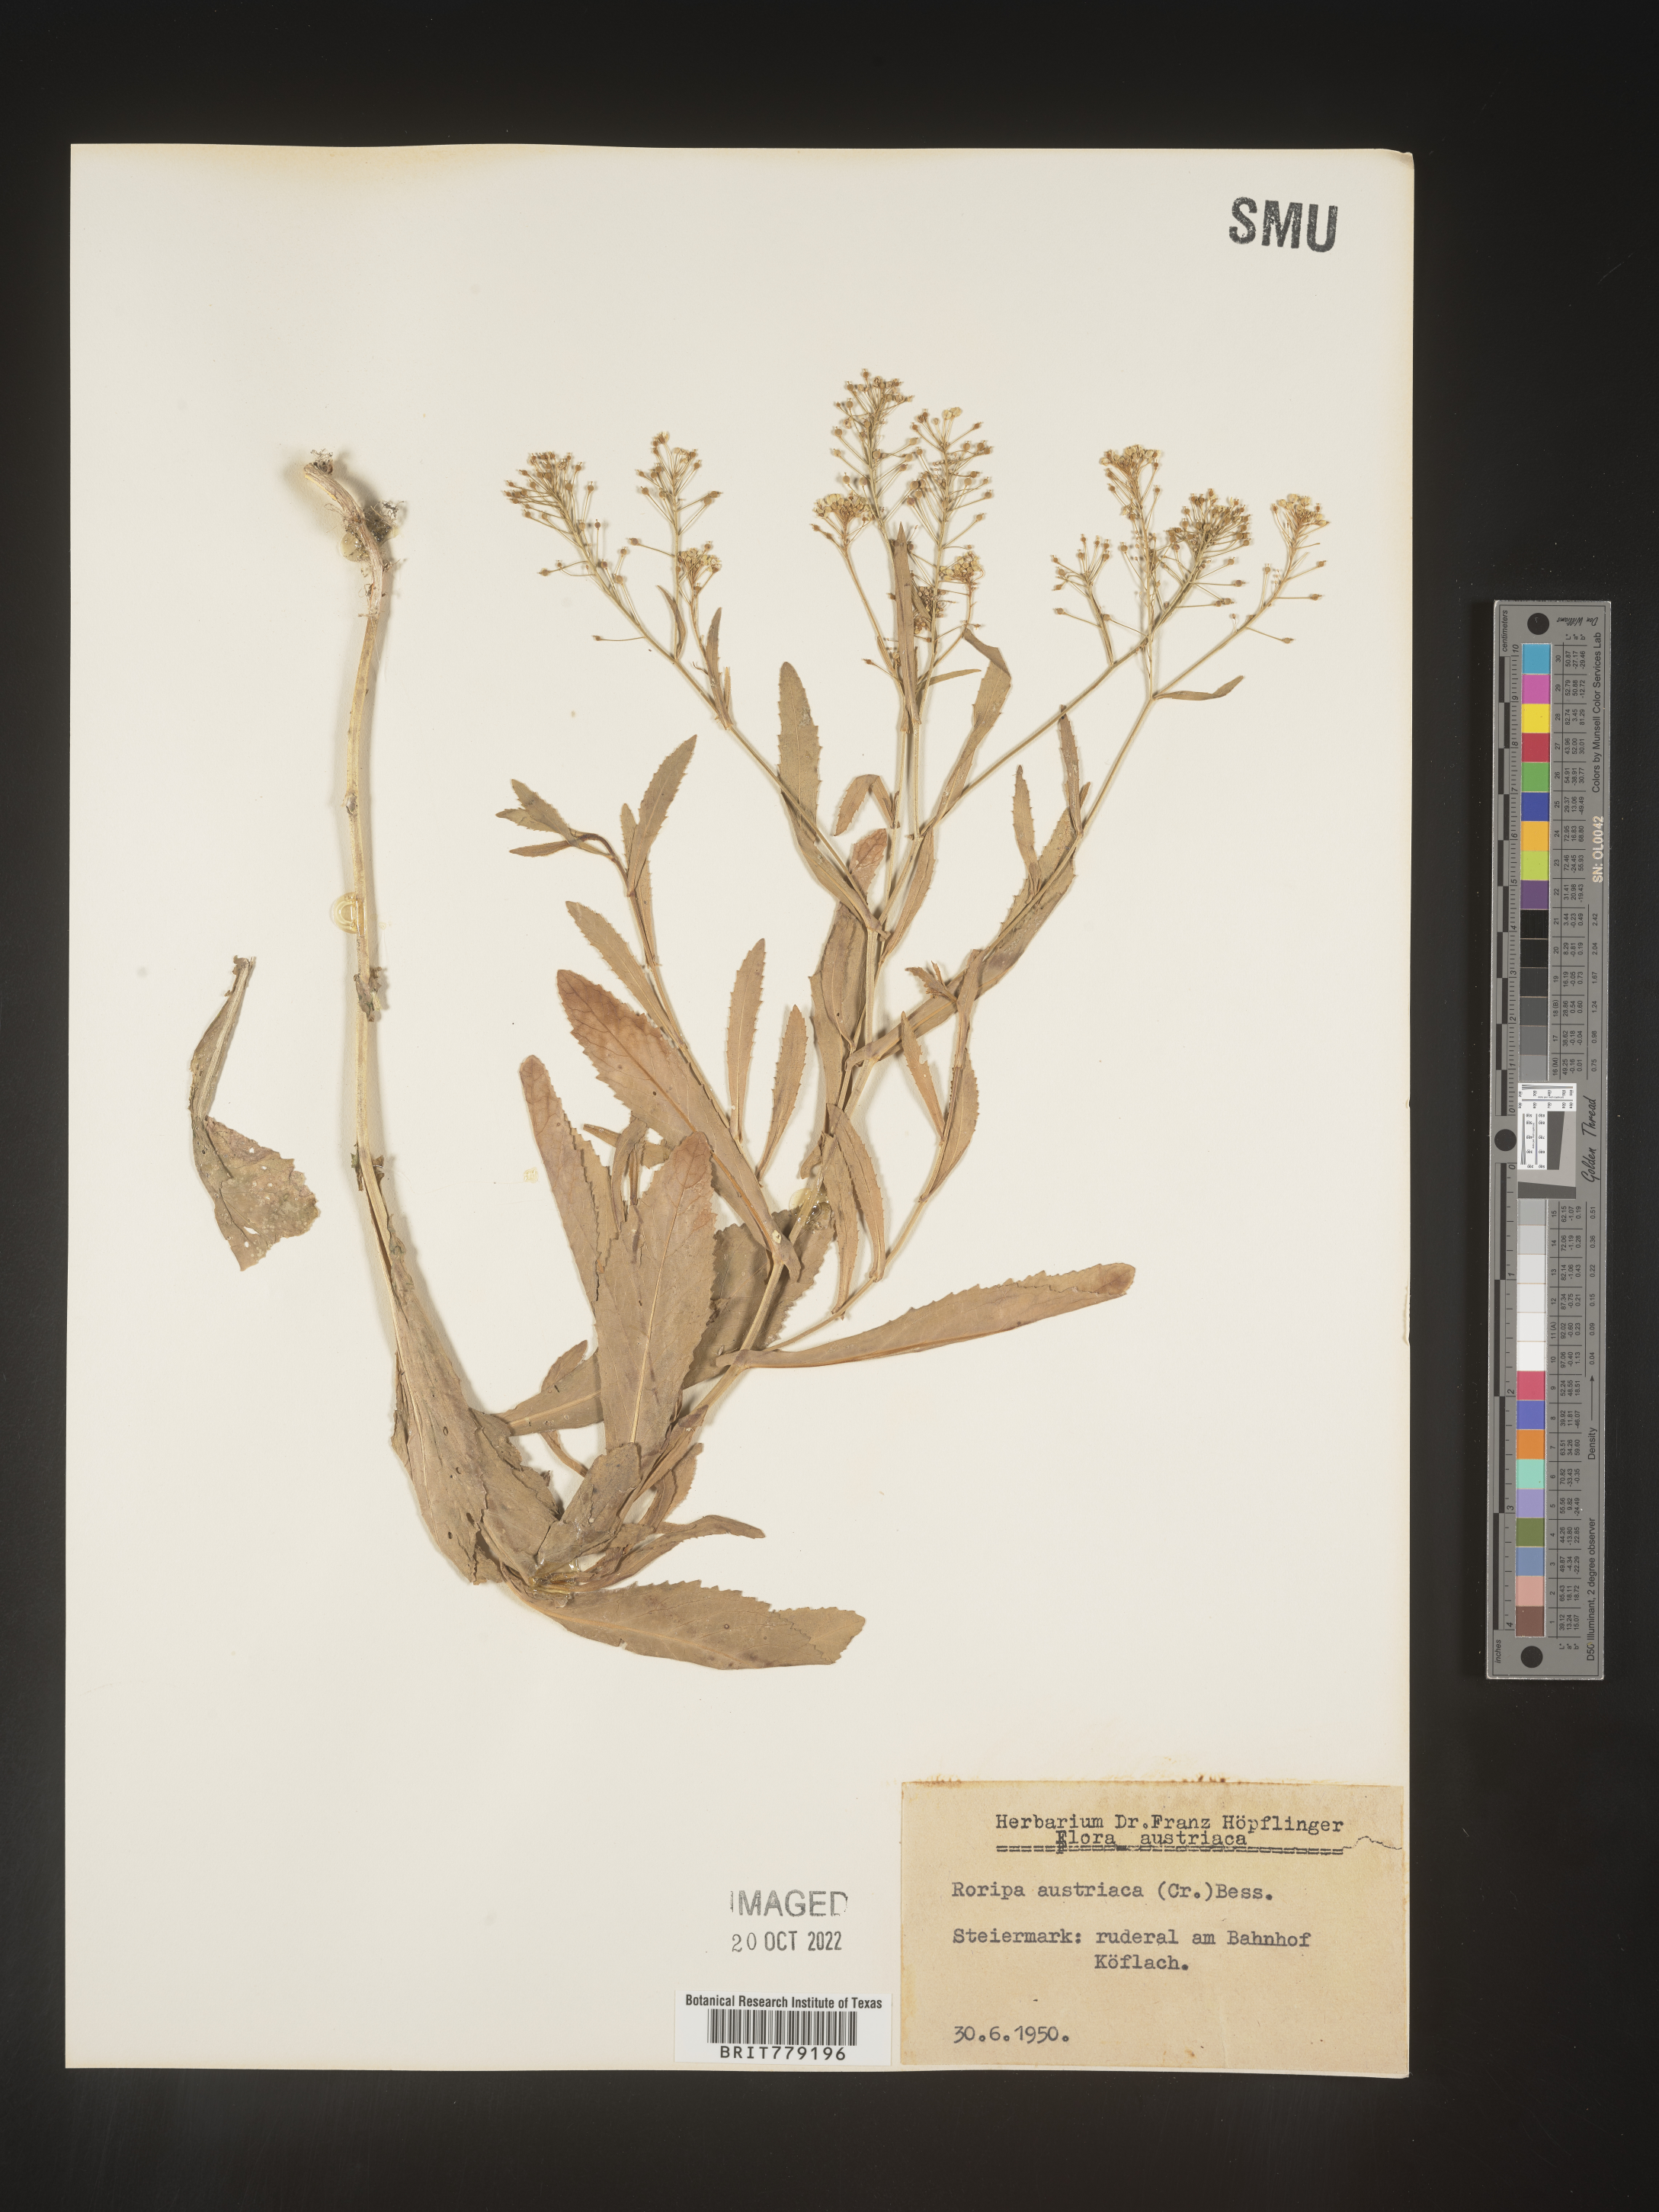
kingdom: Plantae
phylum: Tracheophyta
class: Magnoliopsida
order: Brassicales
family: Brassicaceae
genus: Rorippa
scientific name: Rorippa
